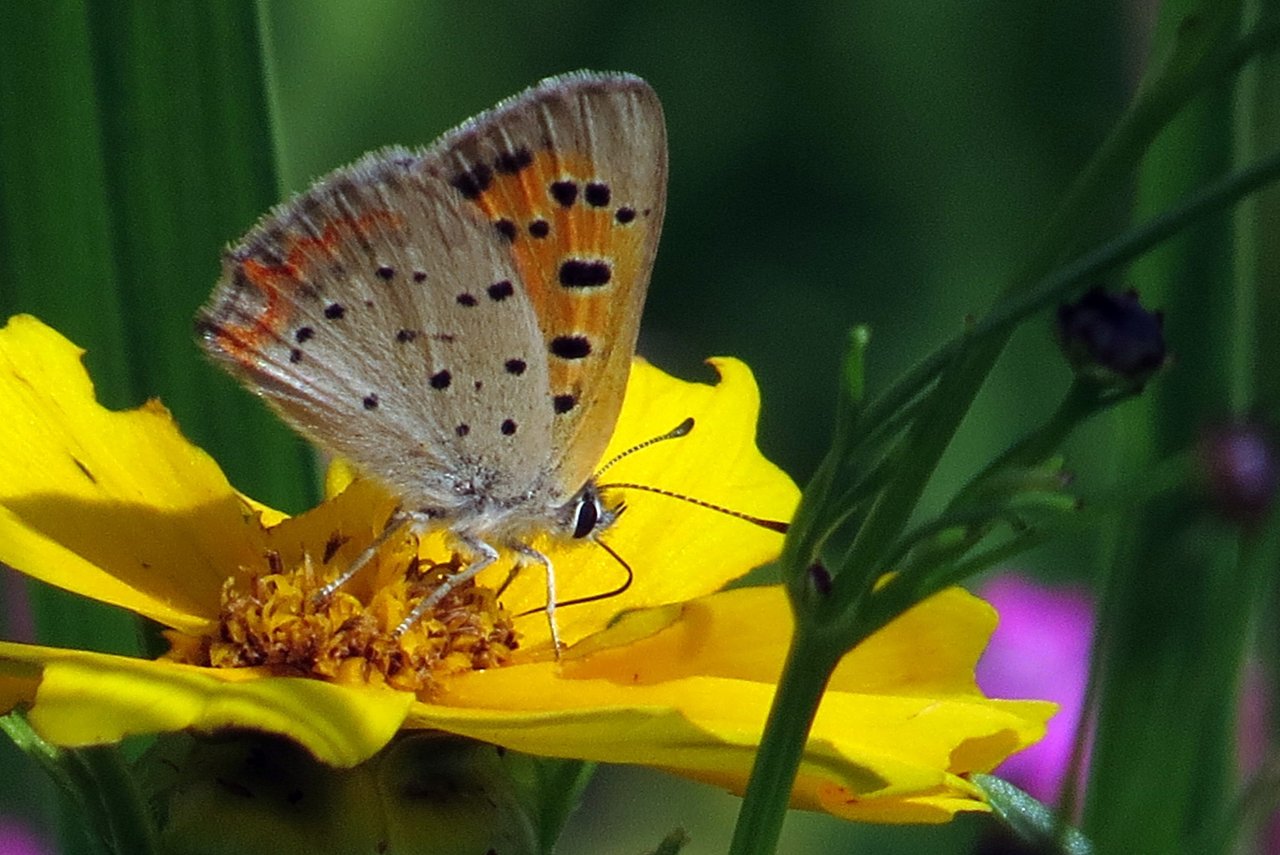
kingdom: Animalia
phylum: Arthropoda
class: Insecta
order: Lepidoptera
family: Lycaenidae
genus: Lycaena
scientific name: Lycaena phlaeas
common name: American Copper
